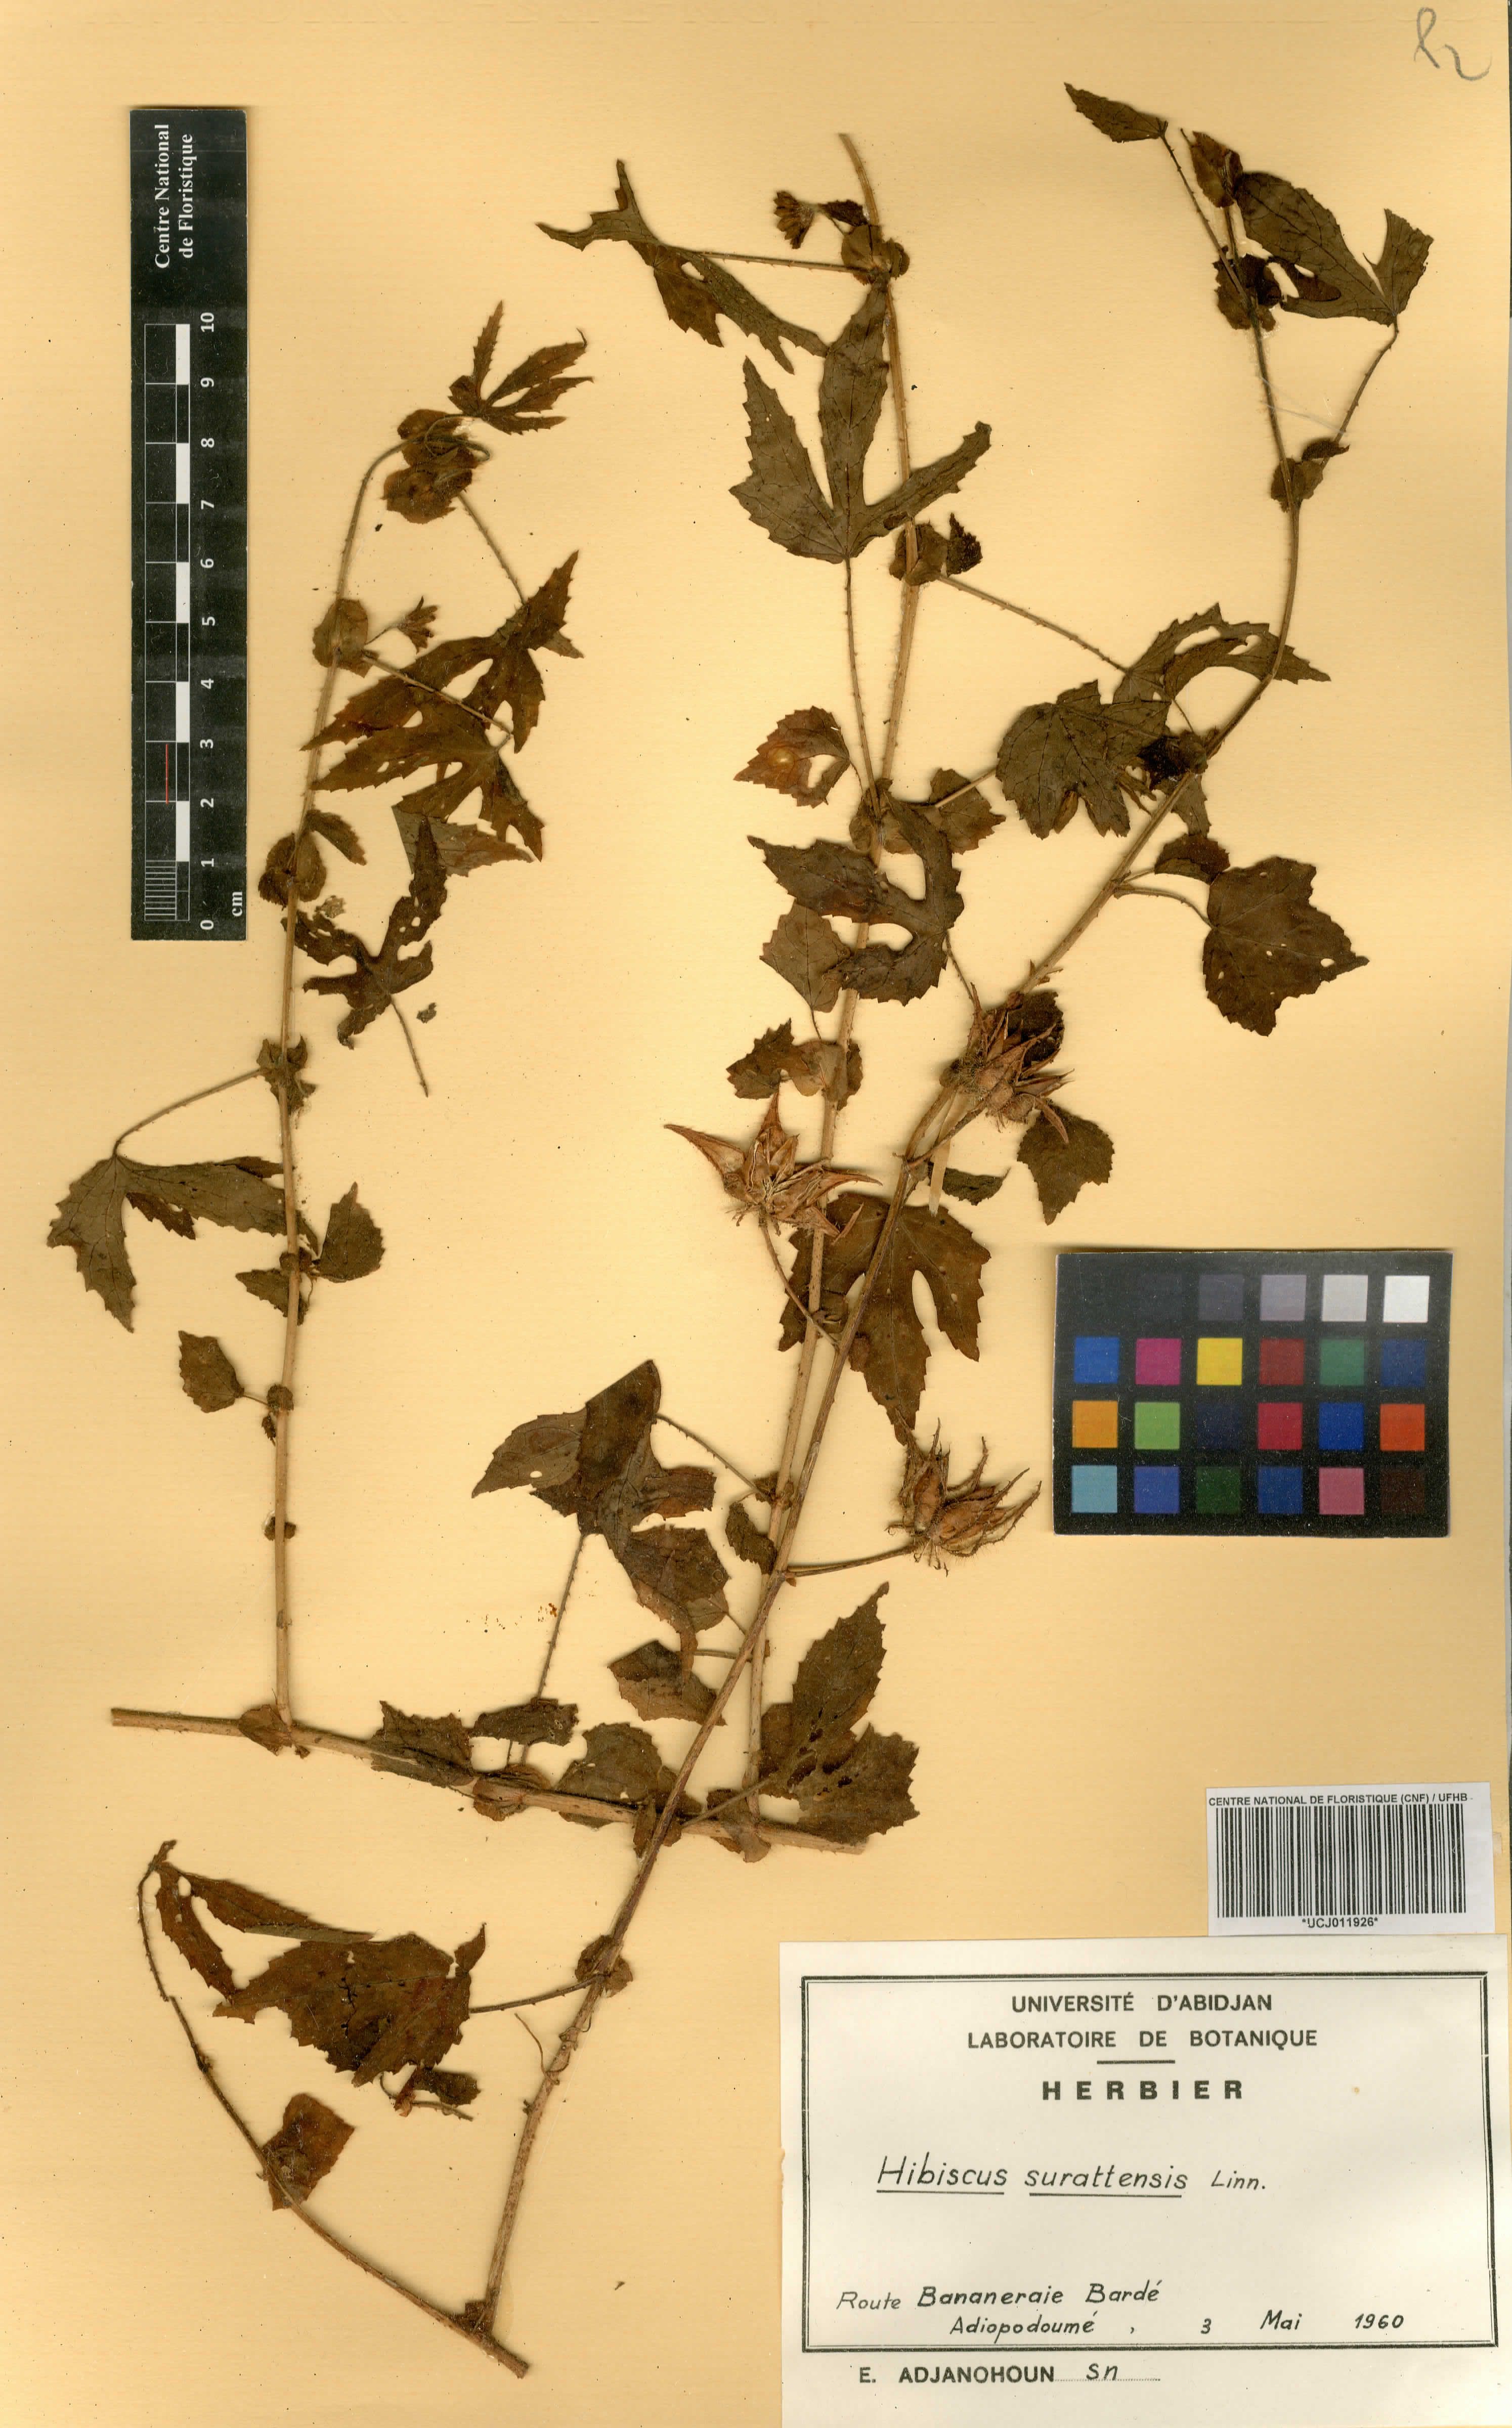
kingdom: Plantae
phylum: Tracheophyta
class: Magnoliopsida
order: Malvales
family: Malvaceae
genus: Hibiscus
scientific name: Hibiscus surattensis
